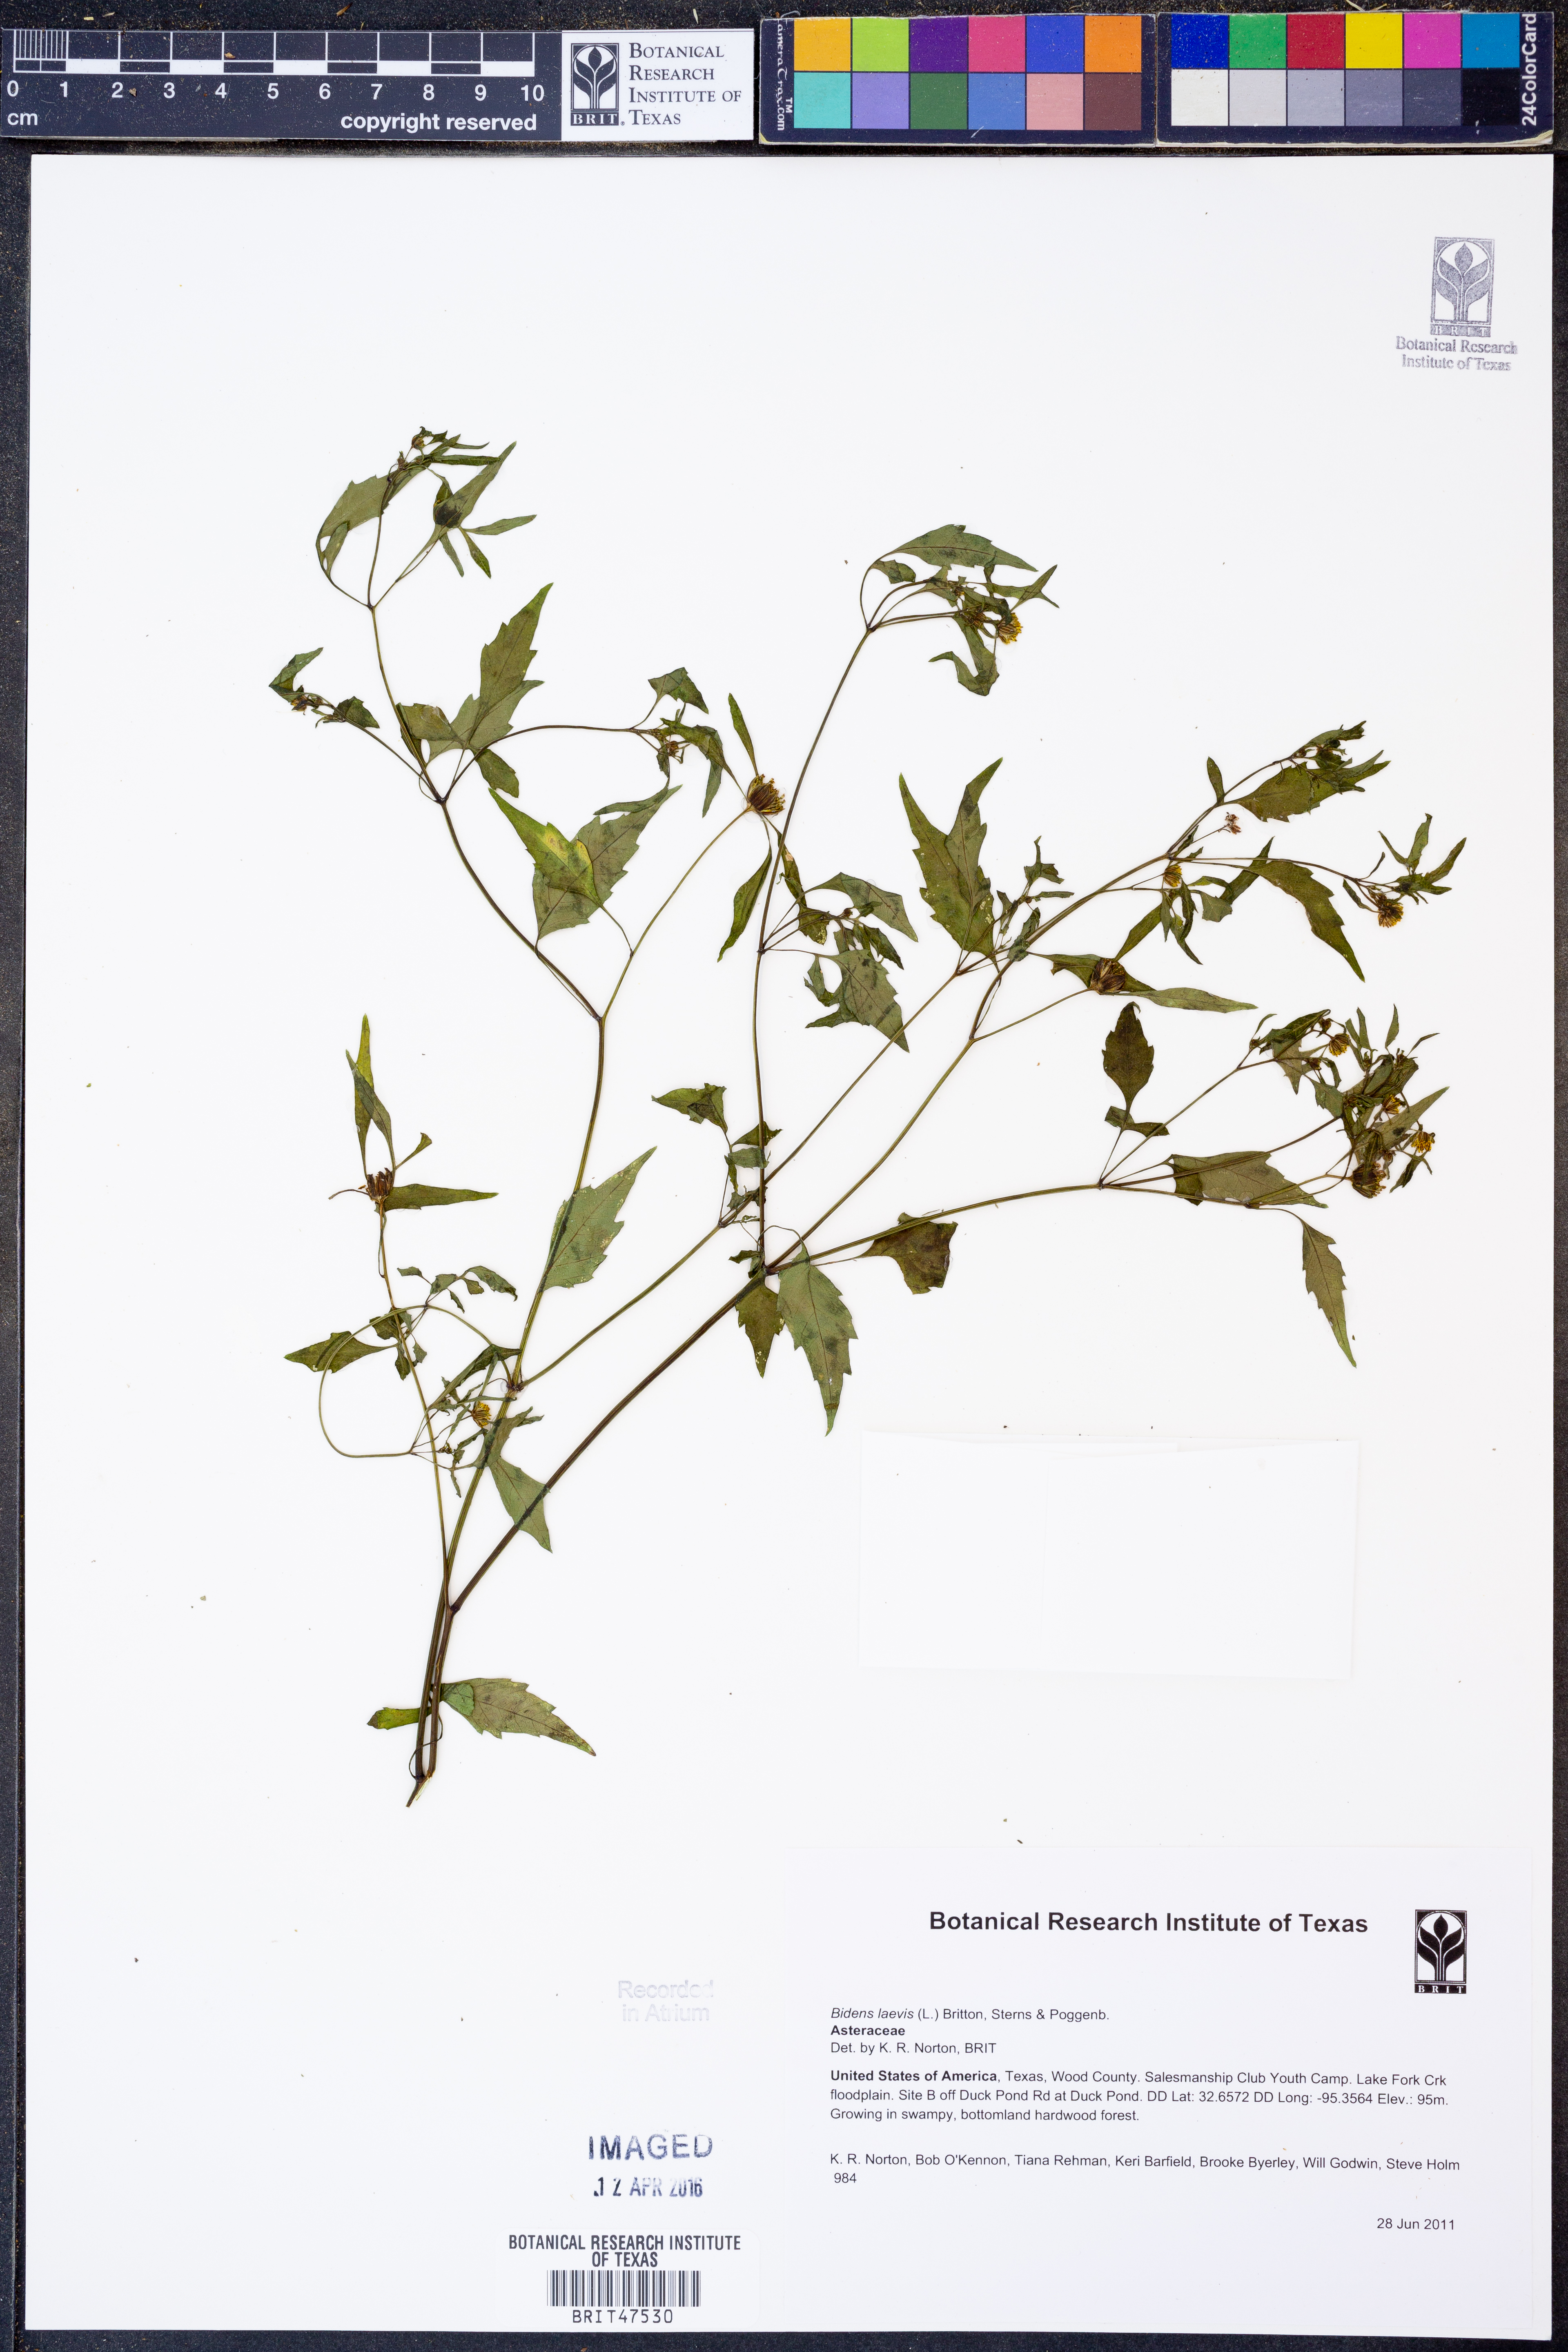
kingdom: Plantae
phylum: Tracheophyta
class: Magnoliopsida
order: Asterales
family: Asteraceae
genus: Bidens
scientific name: Bidens laevis
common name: Larger bur-marigold
